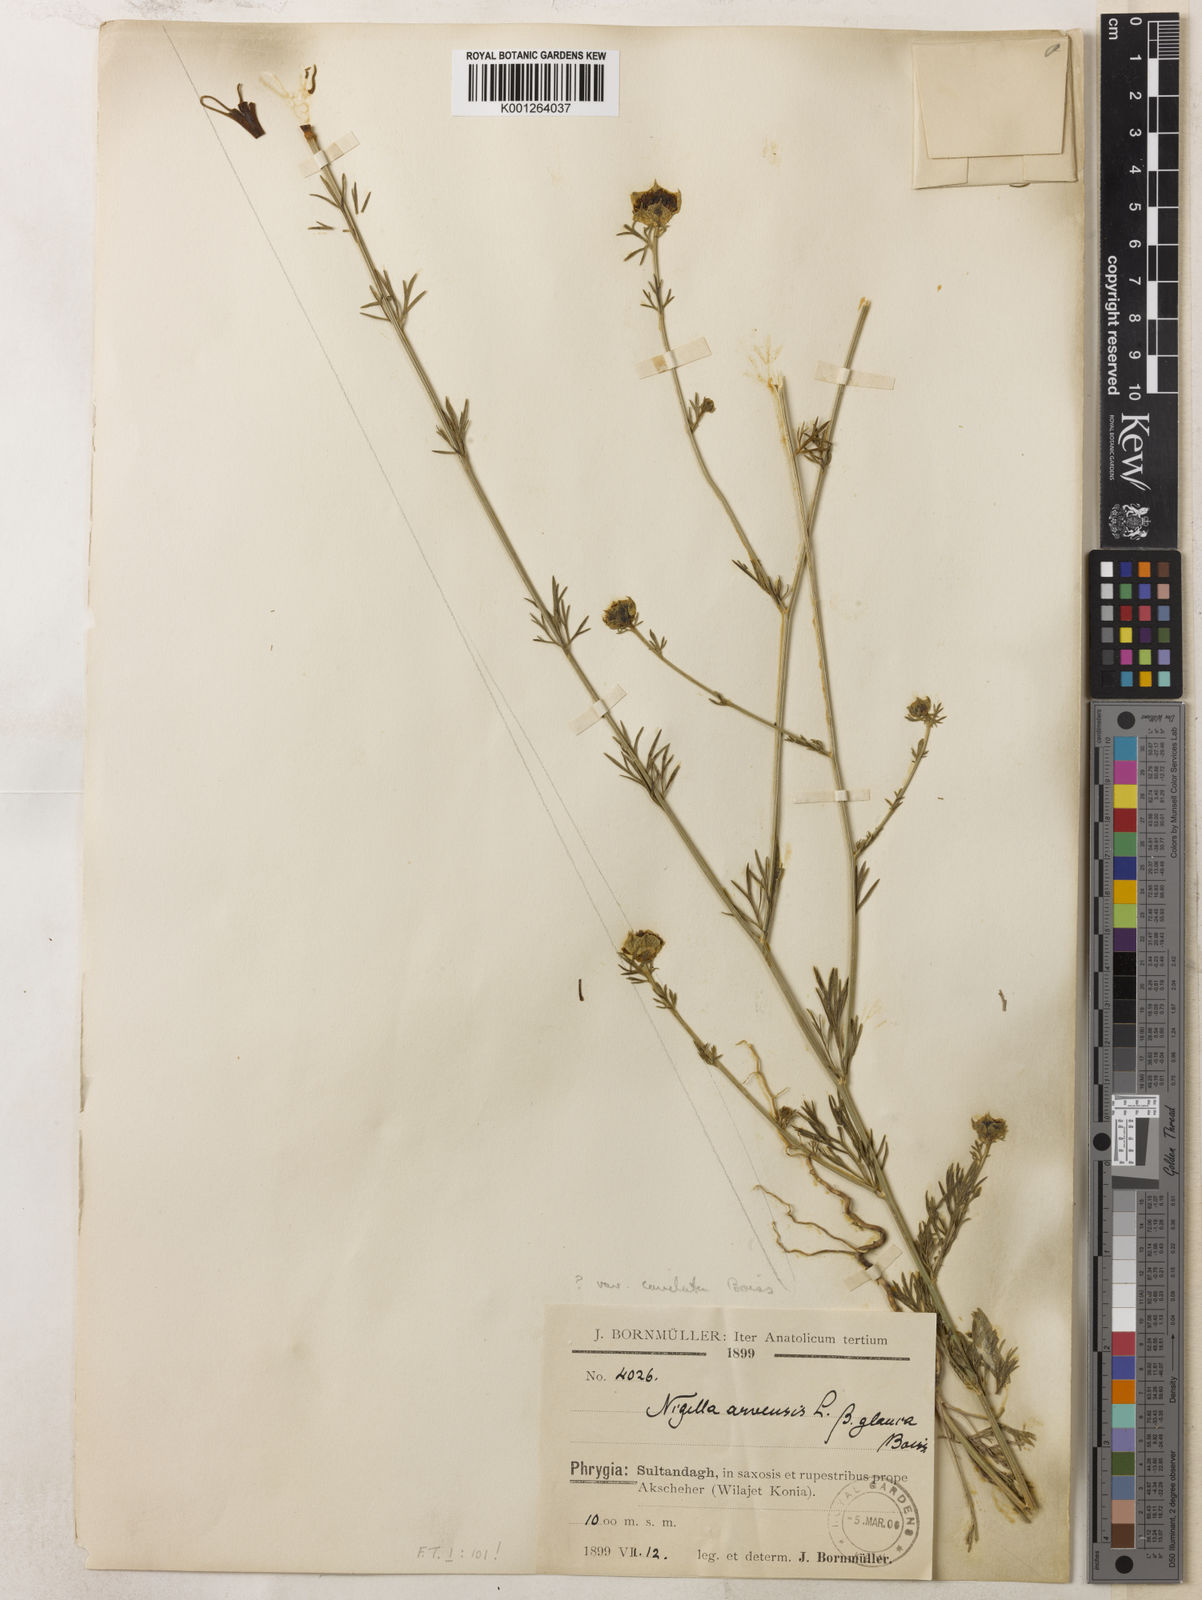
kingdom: Plantae
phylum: Tracheophyta
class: Magnoliopsida
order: Ranunculales
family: Ranunculaceae
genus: Nigella
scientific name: Nigella arvensis
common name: Wild fennel-flower
